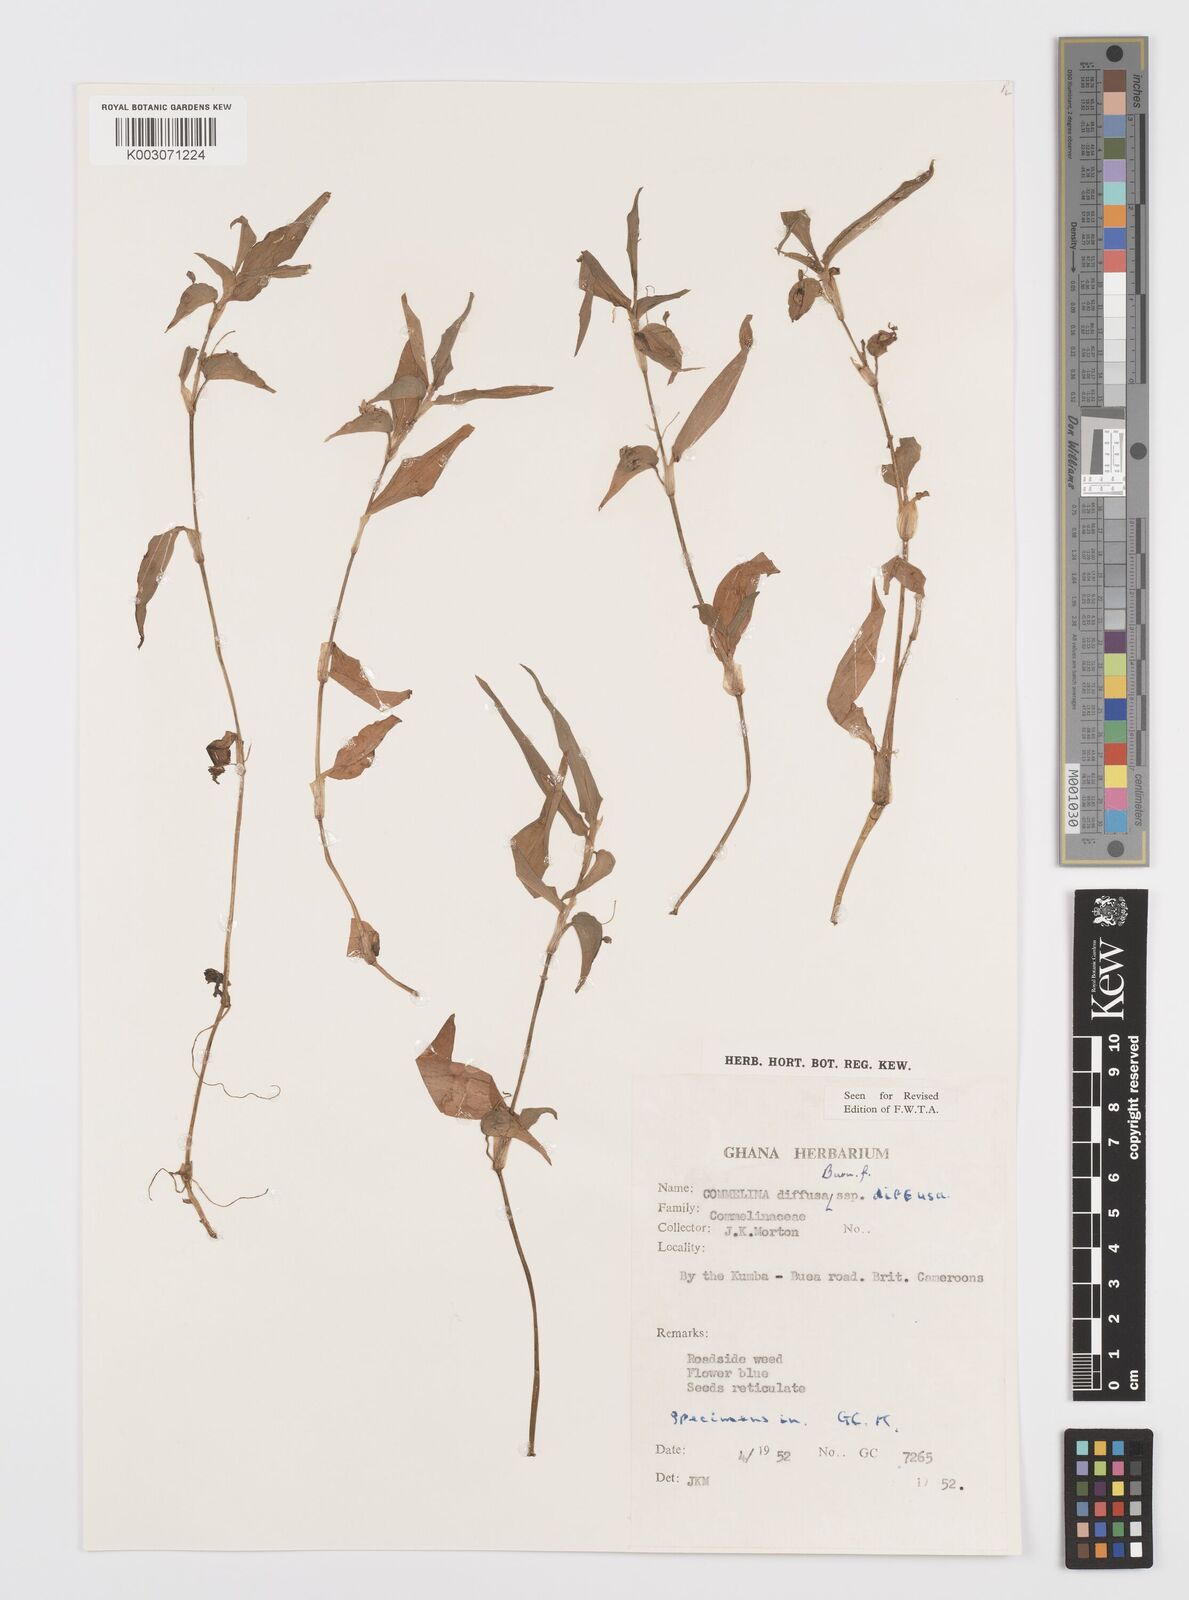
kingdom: Plantae
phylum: Tracheophyta
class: Liliopsida
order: Commelinales
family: Commelinaceae
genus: Commelina
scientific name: Commelina diffusa
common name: Climbing dayflower
